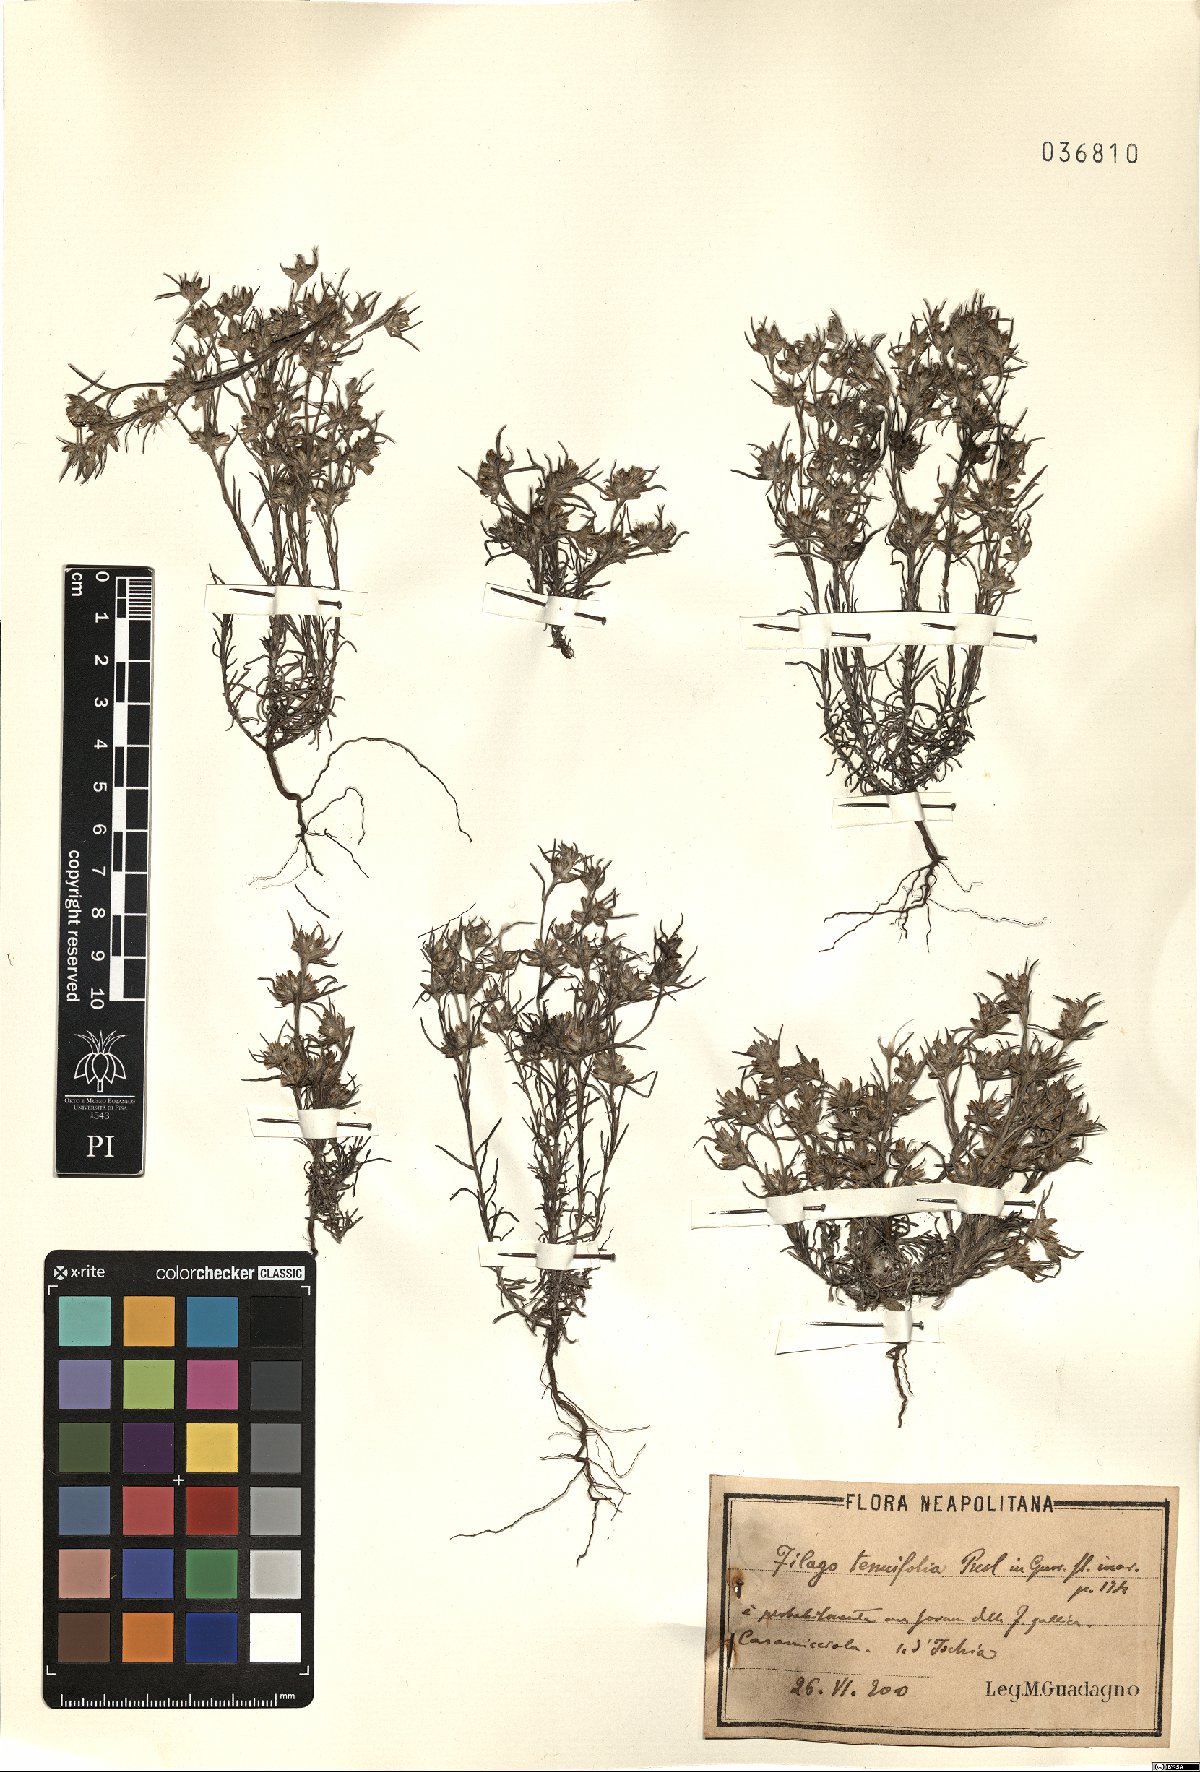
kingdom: Plantae
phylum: Tracheophyta
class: Magnoliopsida
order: Asterales
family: Asteraceae
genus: Logfia
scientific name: Logfia gallica
